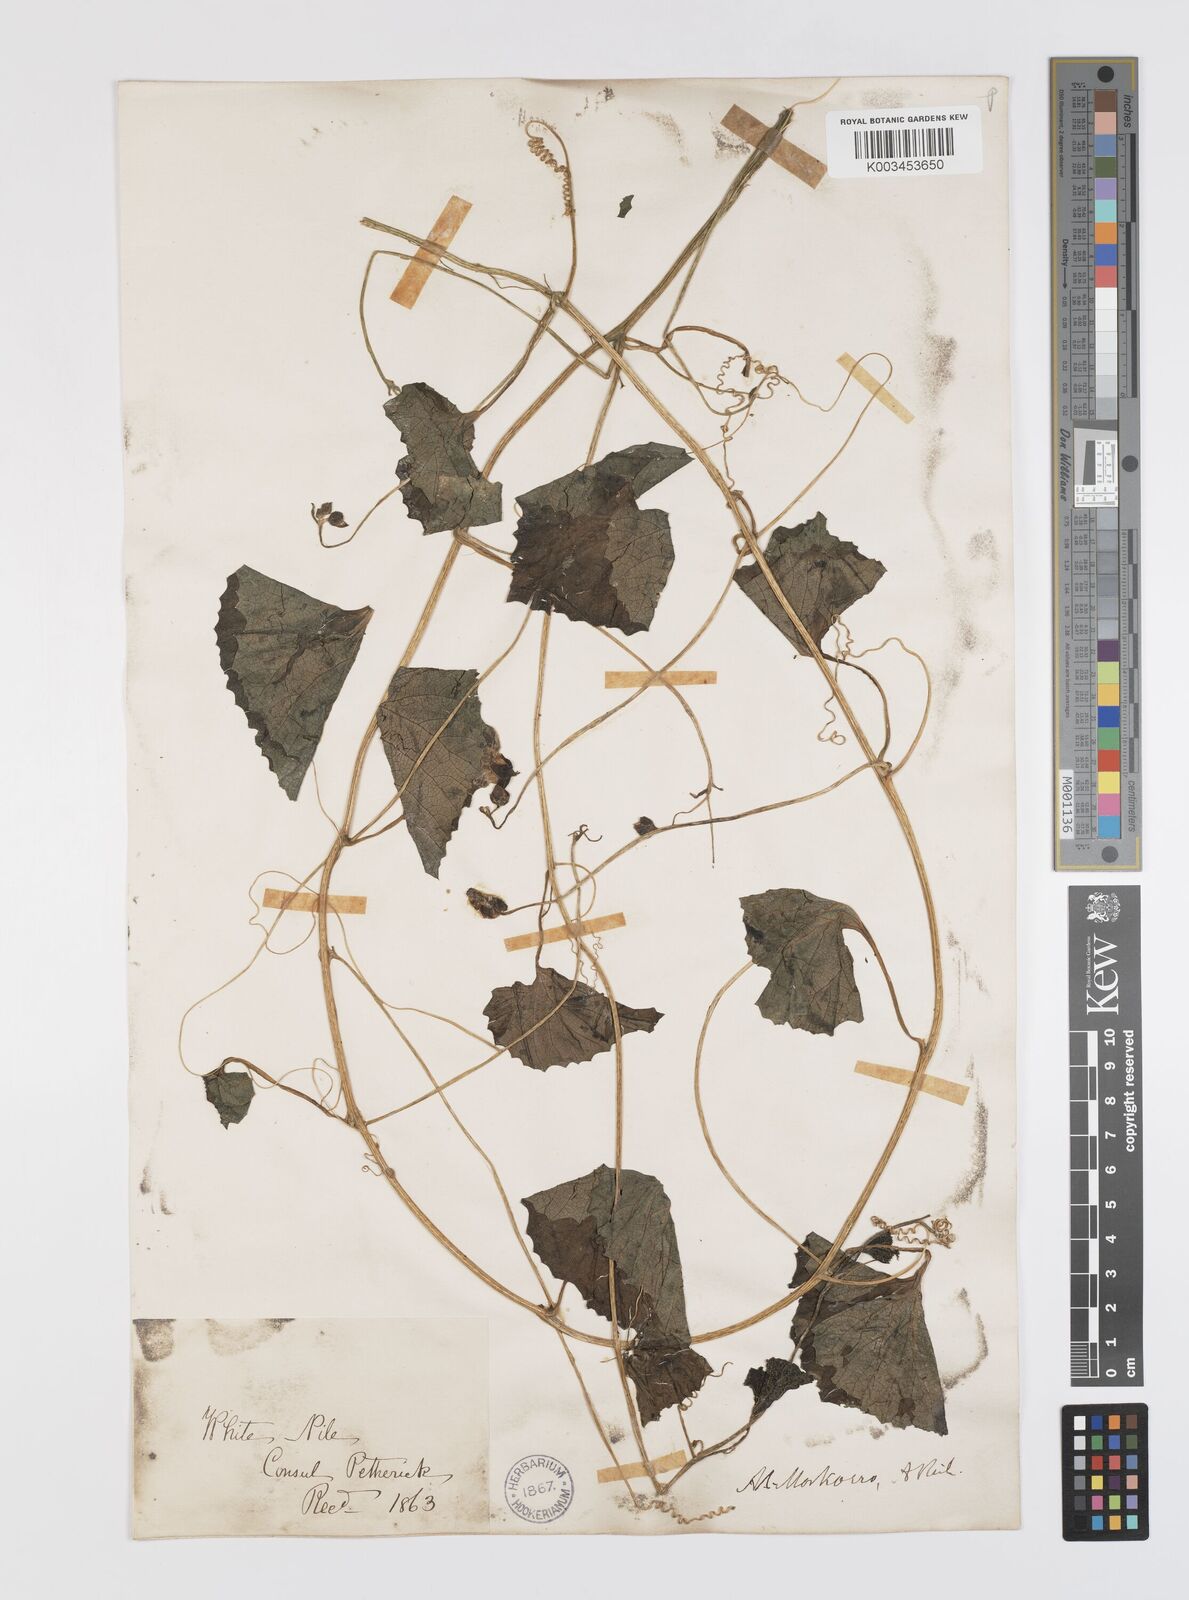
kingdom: Plantae
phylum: Tracheophyta
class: Magnoliopsida
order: Cucurbitales
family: Cucurbitaceae
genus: Momordica
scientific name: Momordica foetida
